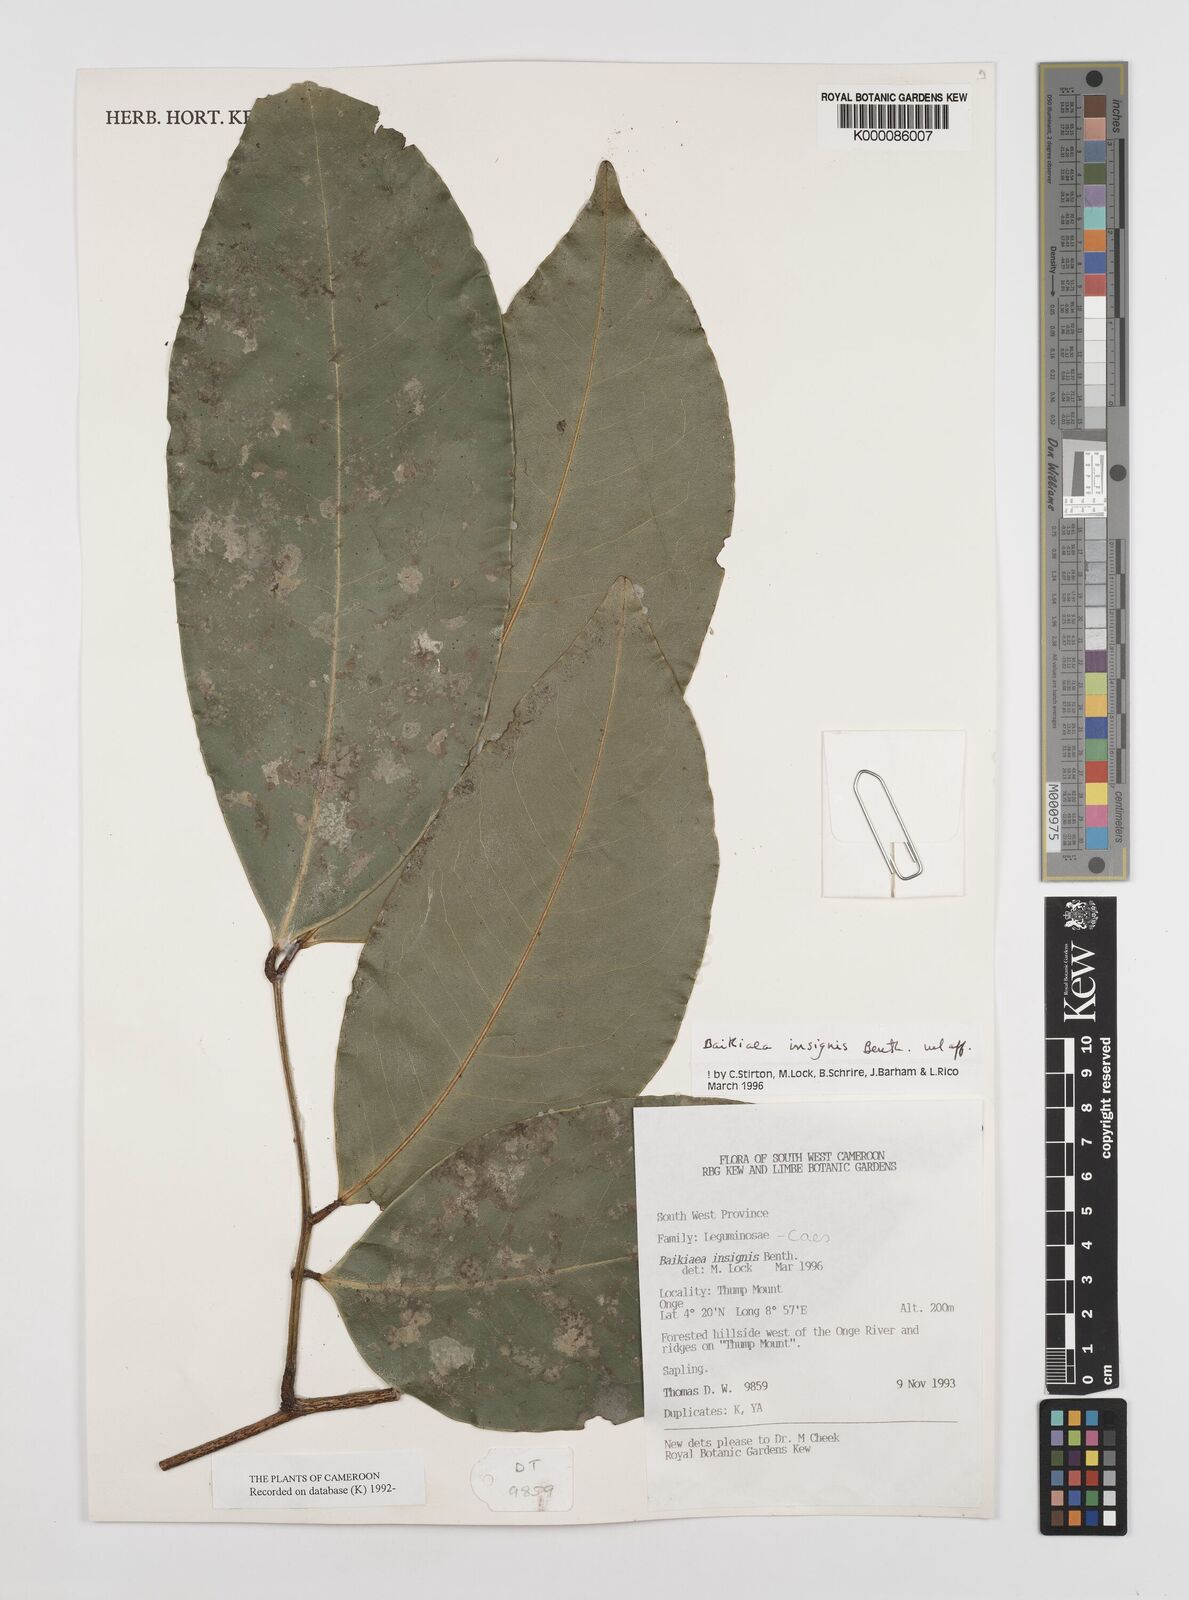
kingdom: Plantae
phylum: Tracheophyta
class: Magnoliopsida
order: Fabales
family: Fabaceae
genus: Baikiaea
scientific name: Baikiaea insignis
